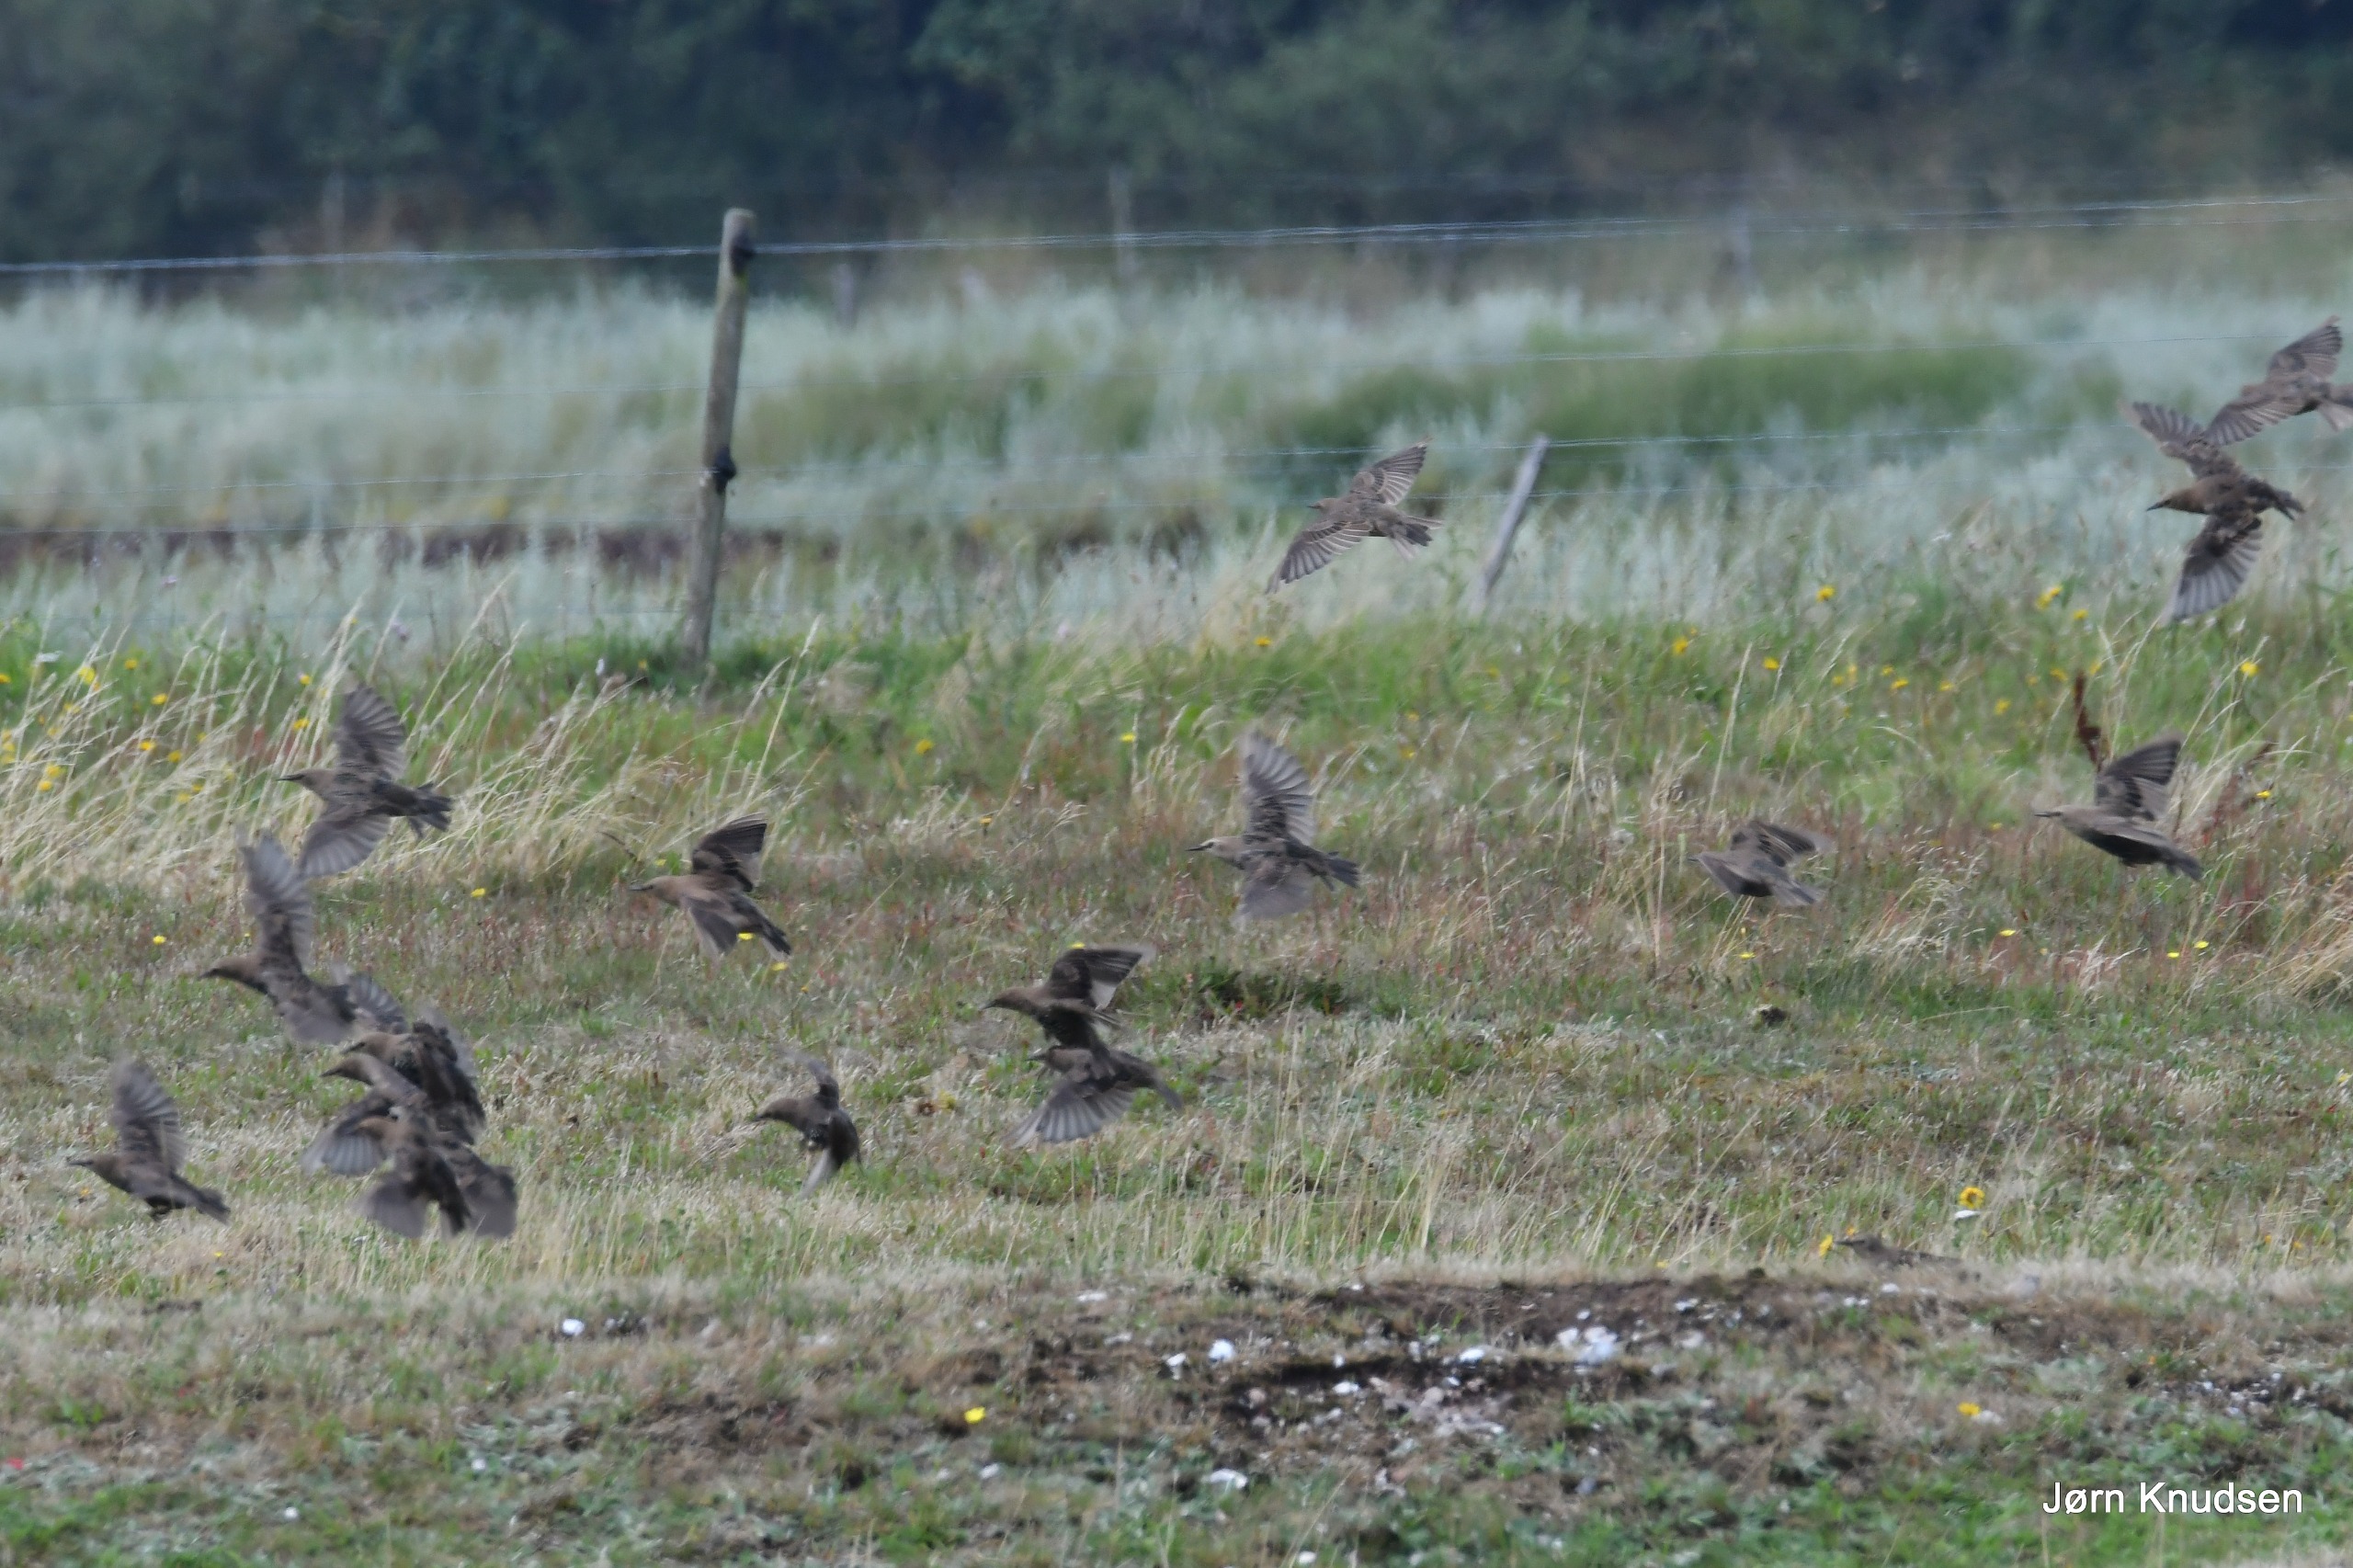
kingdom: Animalia
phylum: Chordata
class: Aves
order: Passeriformes
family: Sturnidae
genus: Sturnus
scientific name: Sturnus vulgaris
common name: Stær
